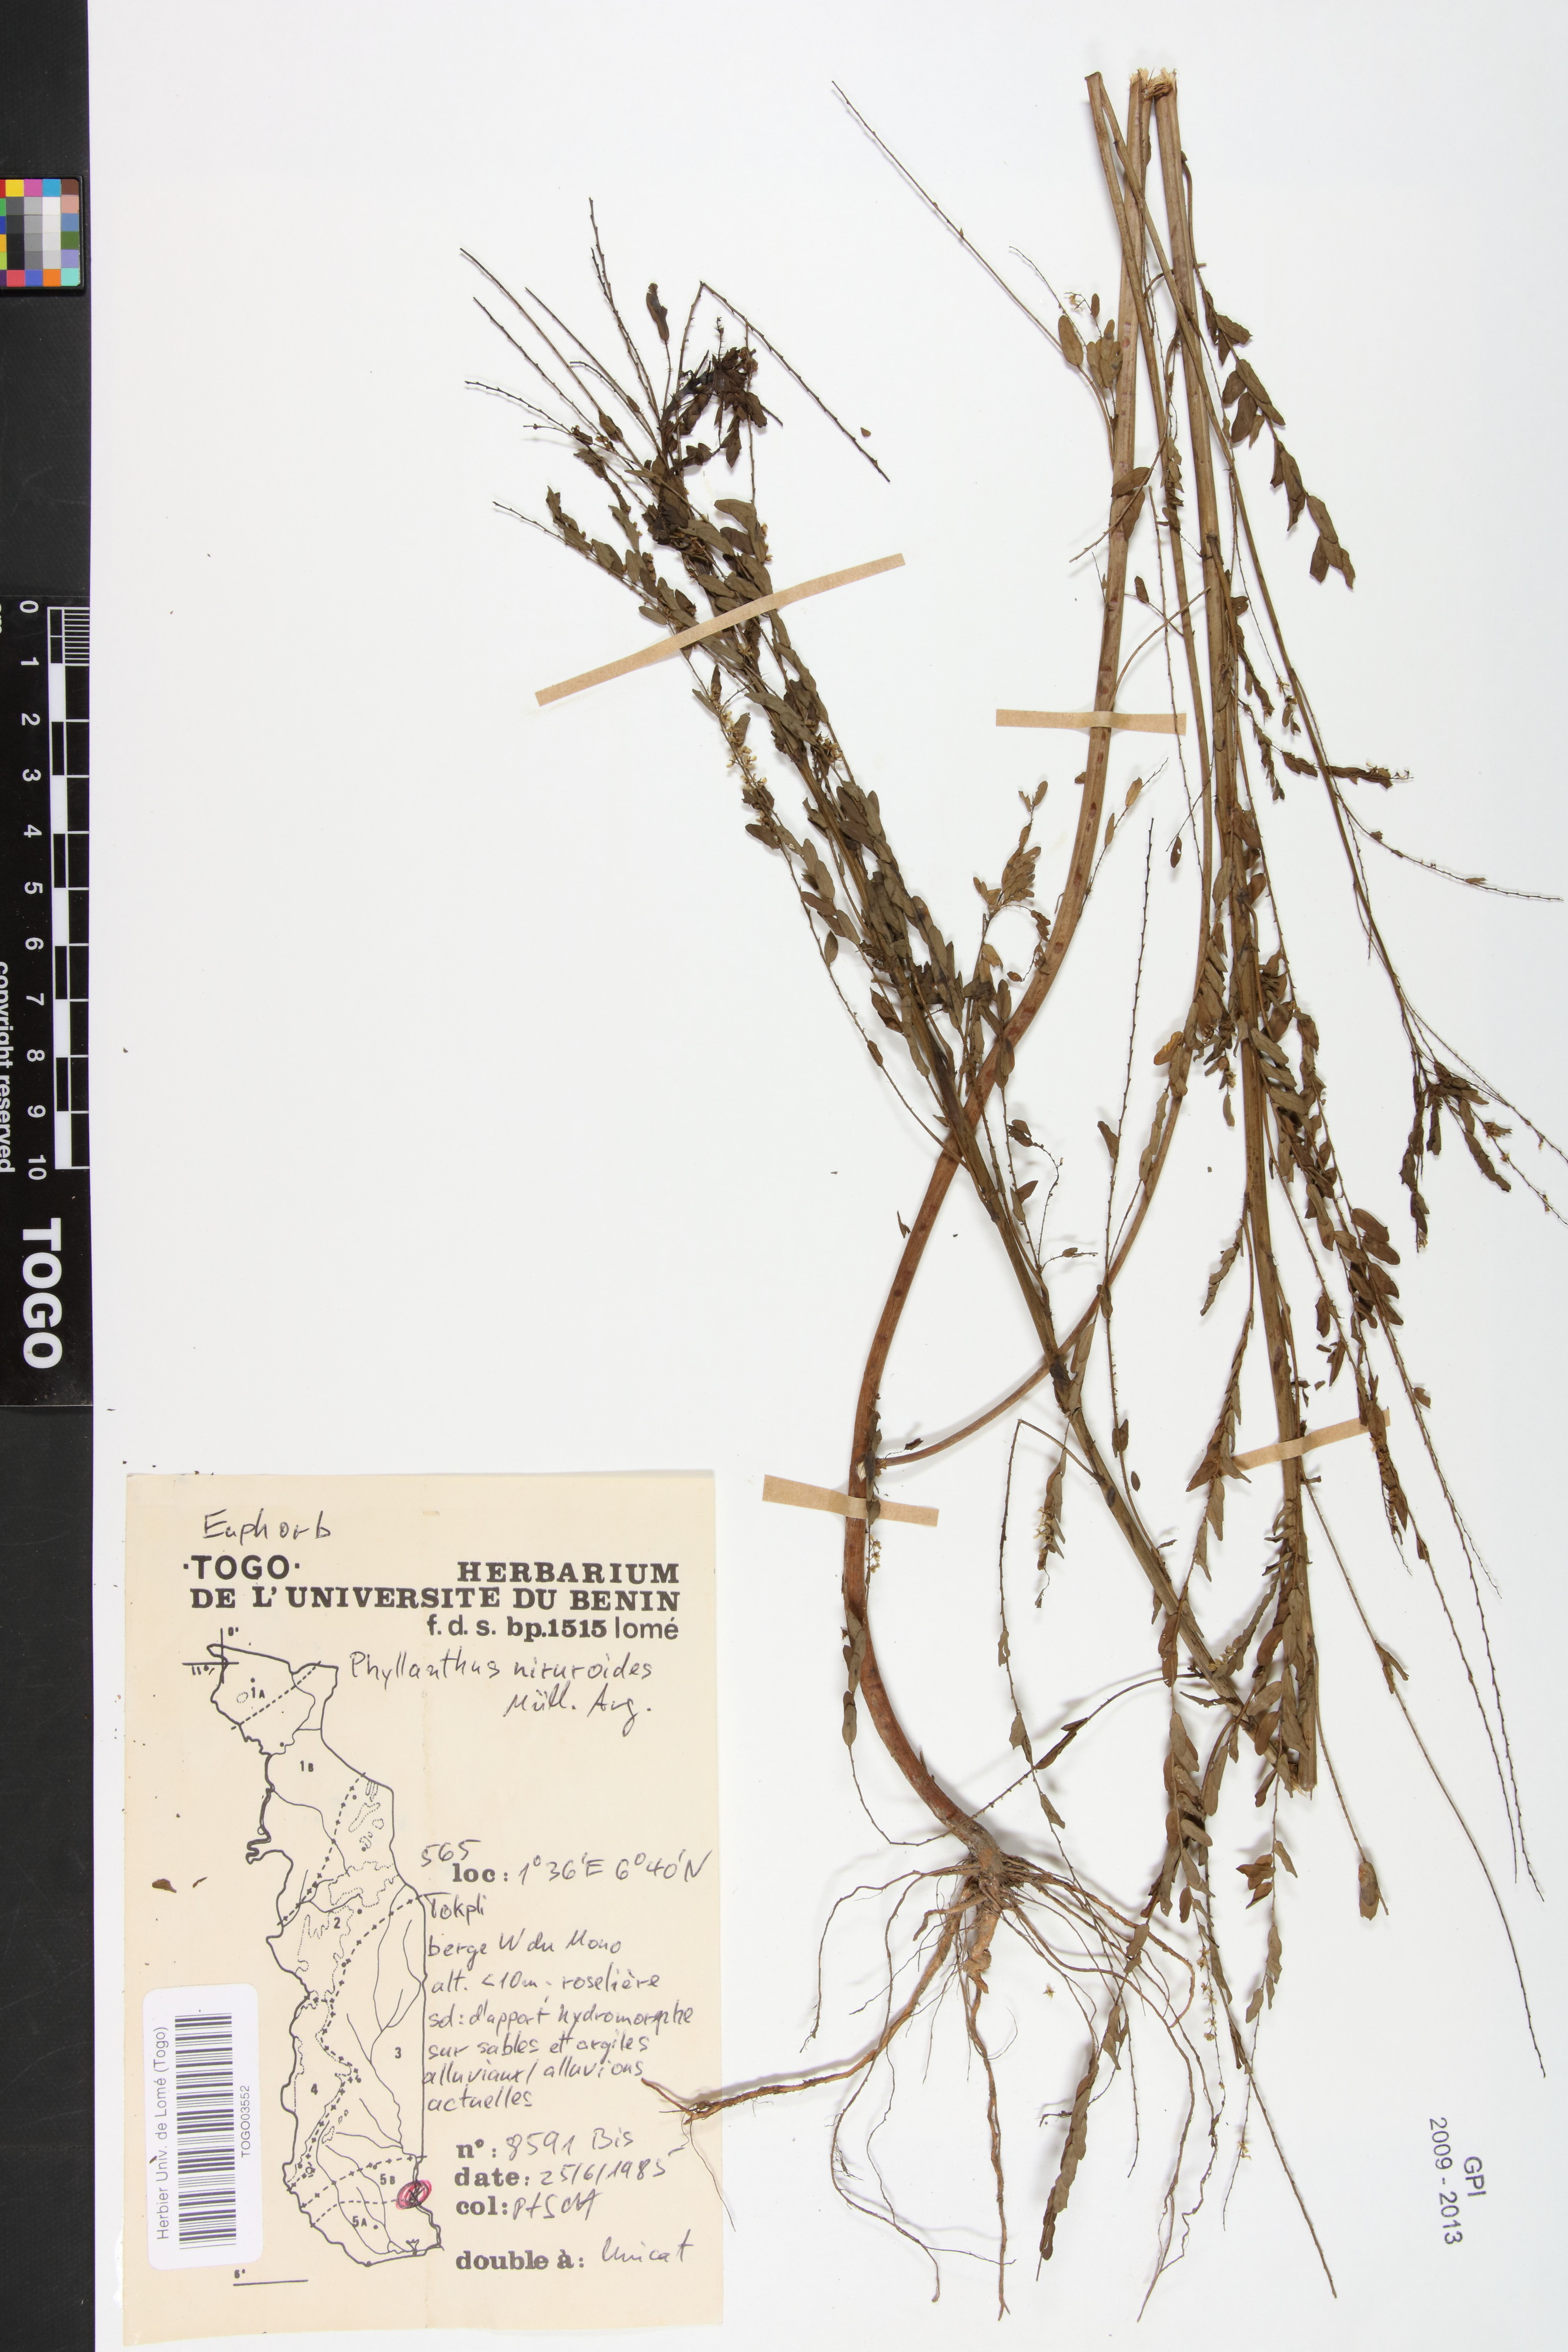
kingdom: Plantae
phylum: Tracheophyta
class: Magnoliopsida
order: Malpighiales
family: Phyllanthaceae
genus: Phyllanthus
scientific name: Phyllanthus niruroides
